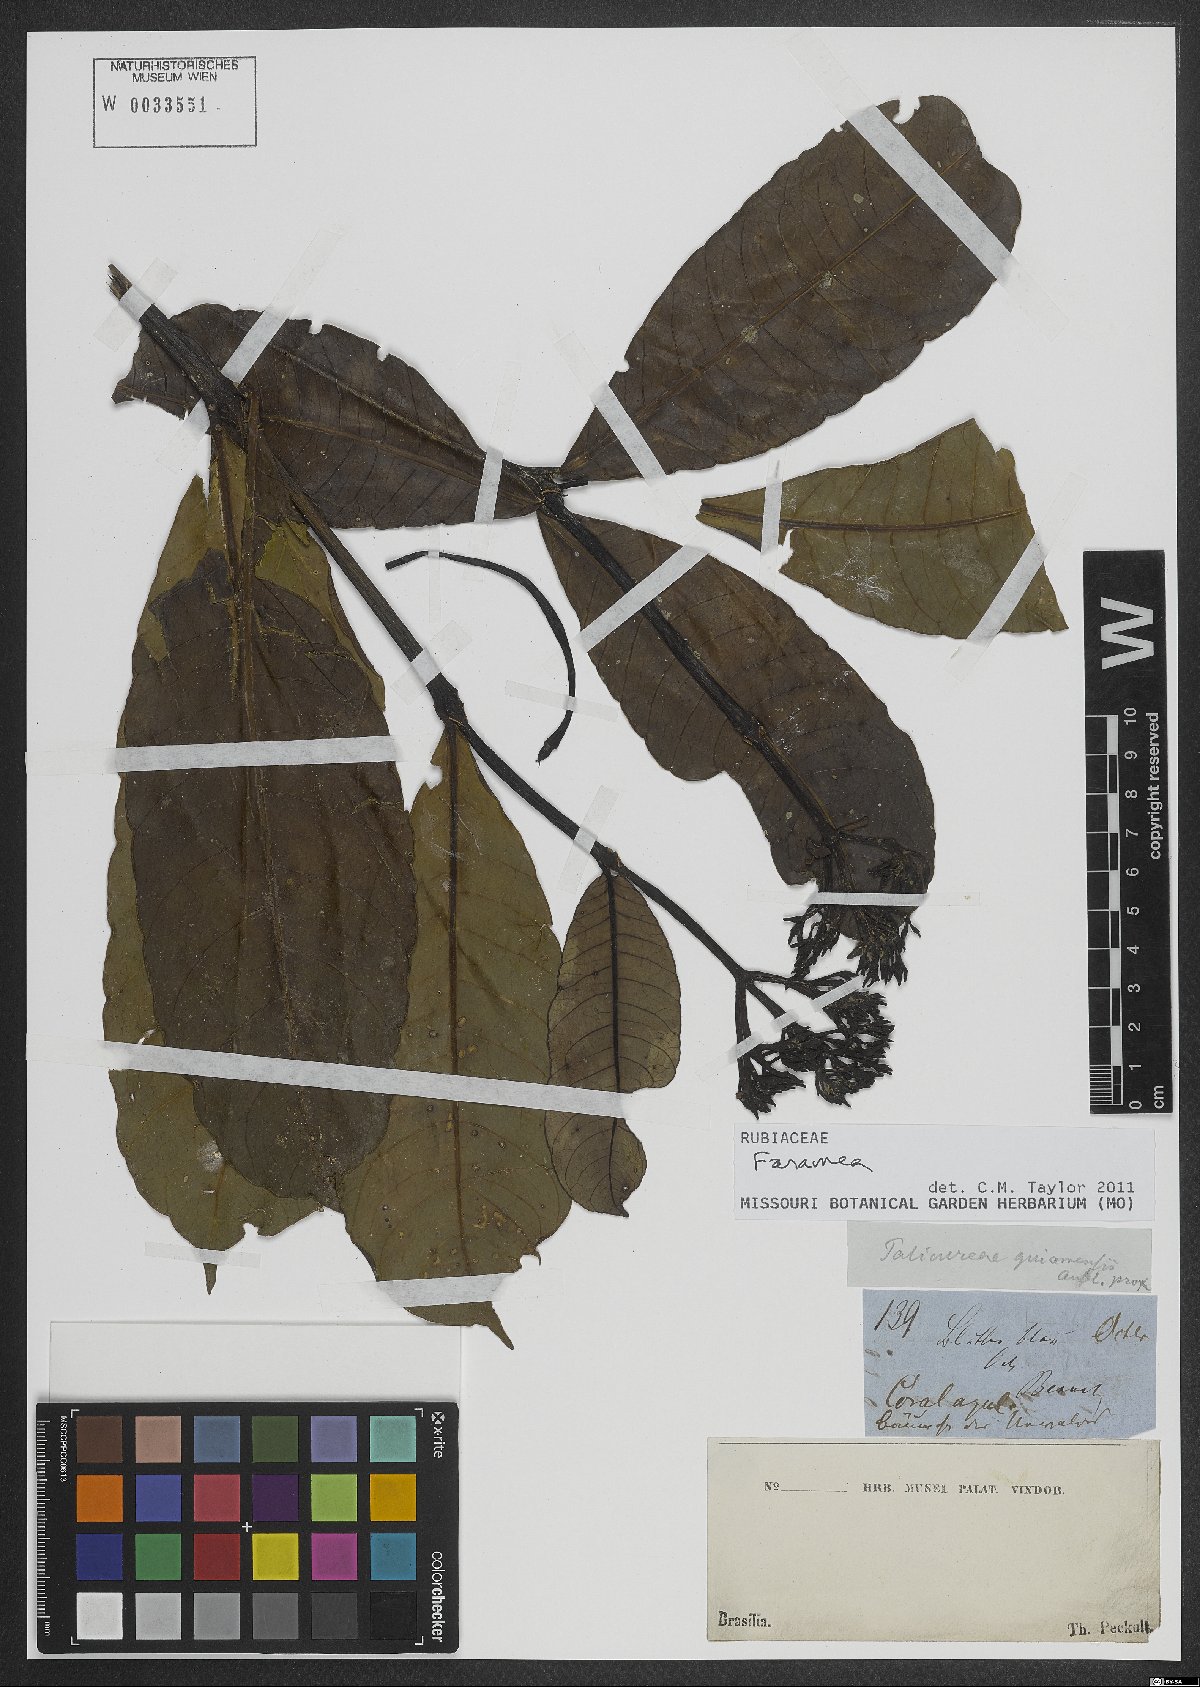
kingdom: Plantae
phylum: Tracheophyta
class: Magnoliopsida
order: Gentianales
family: Rubiaceae
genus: Faramea
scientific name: Faramea
